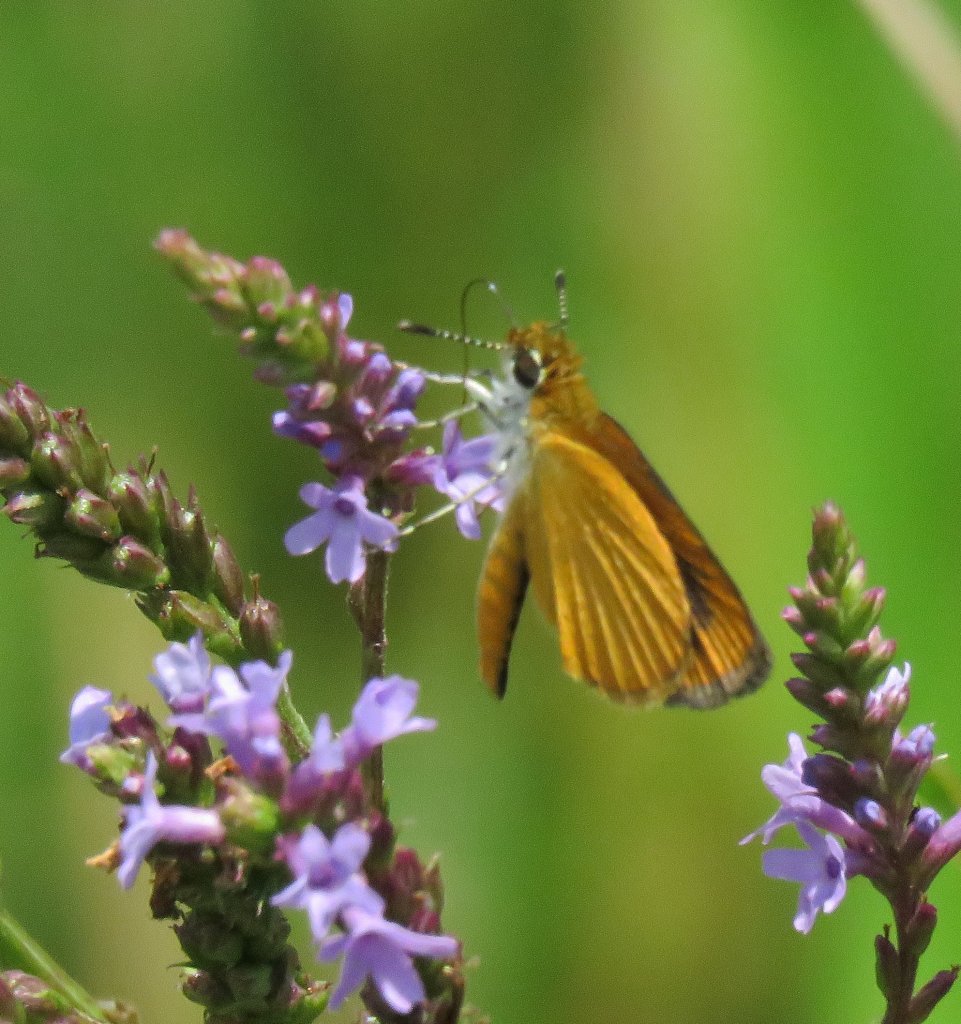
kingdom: Animalia
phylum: Arthropoda
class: Insecta
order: Lepidoptera
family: Hesperiidae
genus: Ancyloxypha
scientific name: Ancyloxypha numitor
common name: Least Skipper
